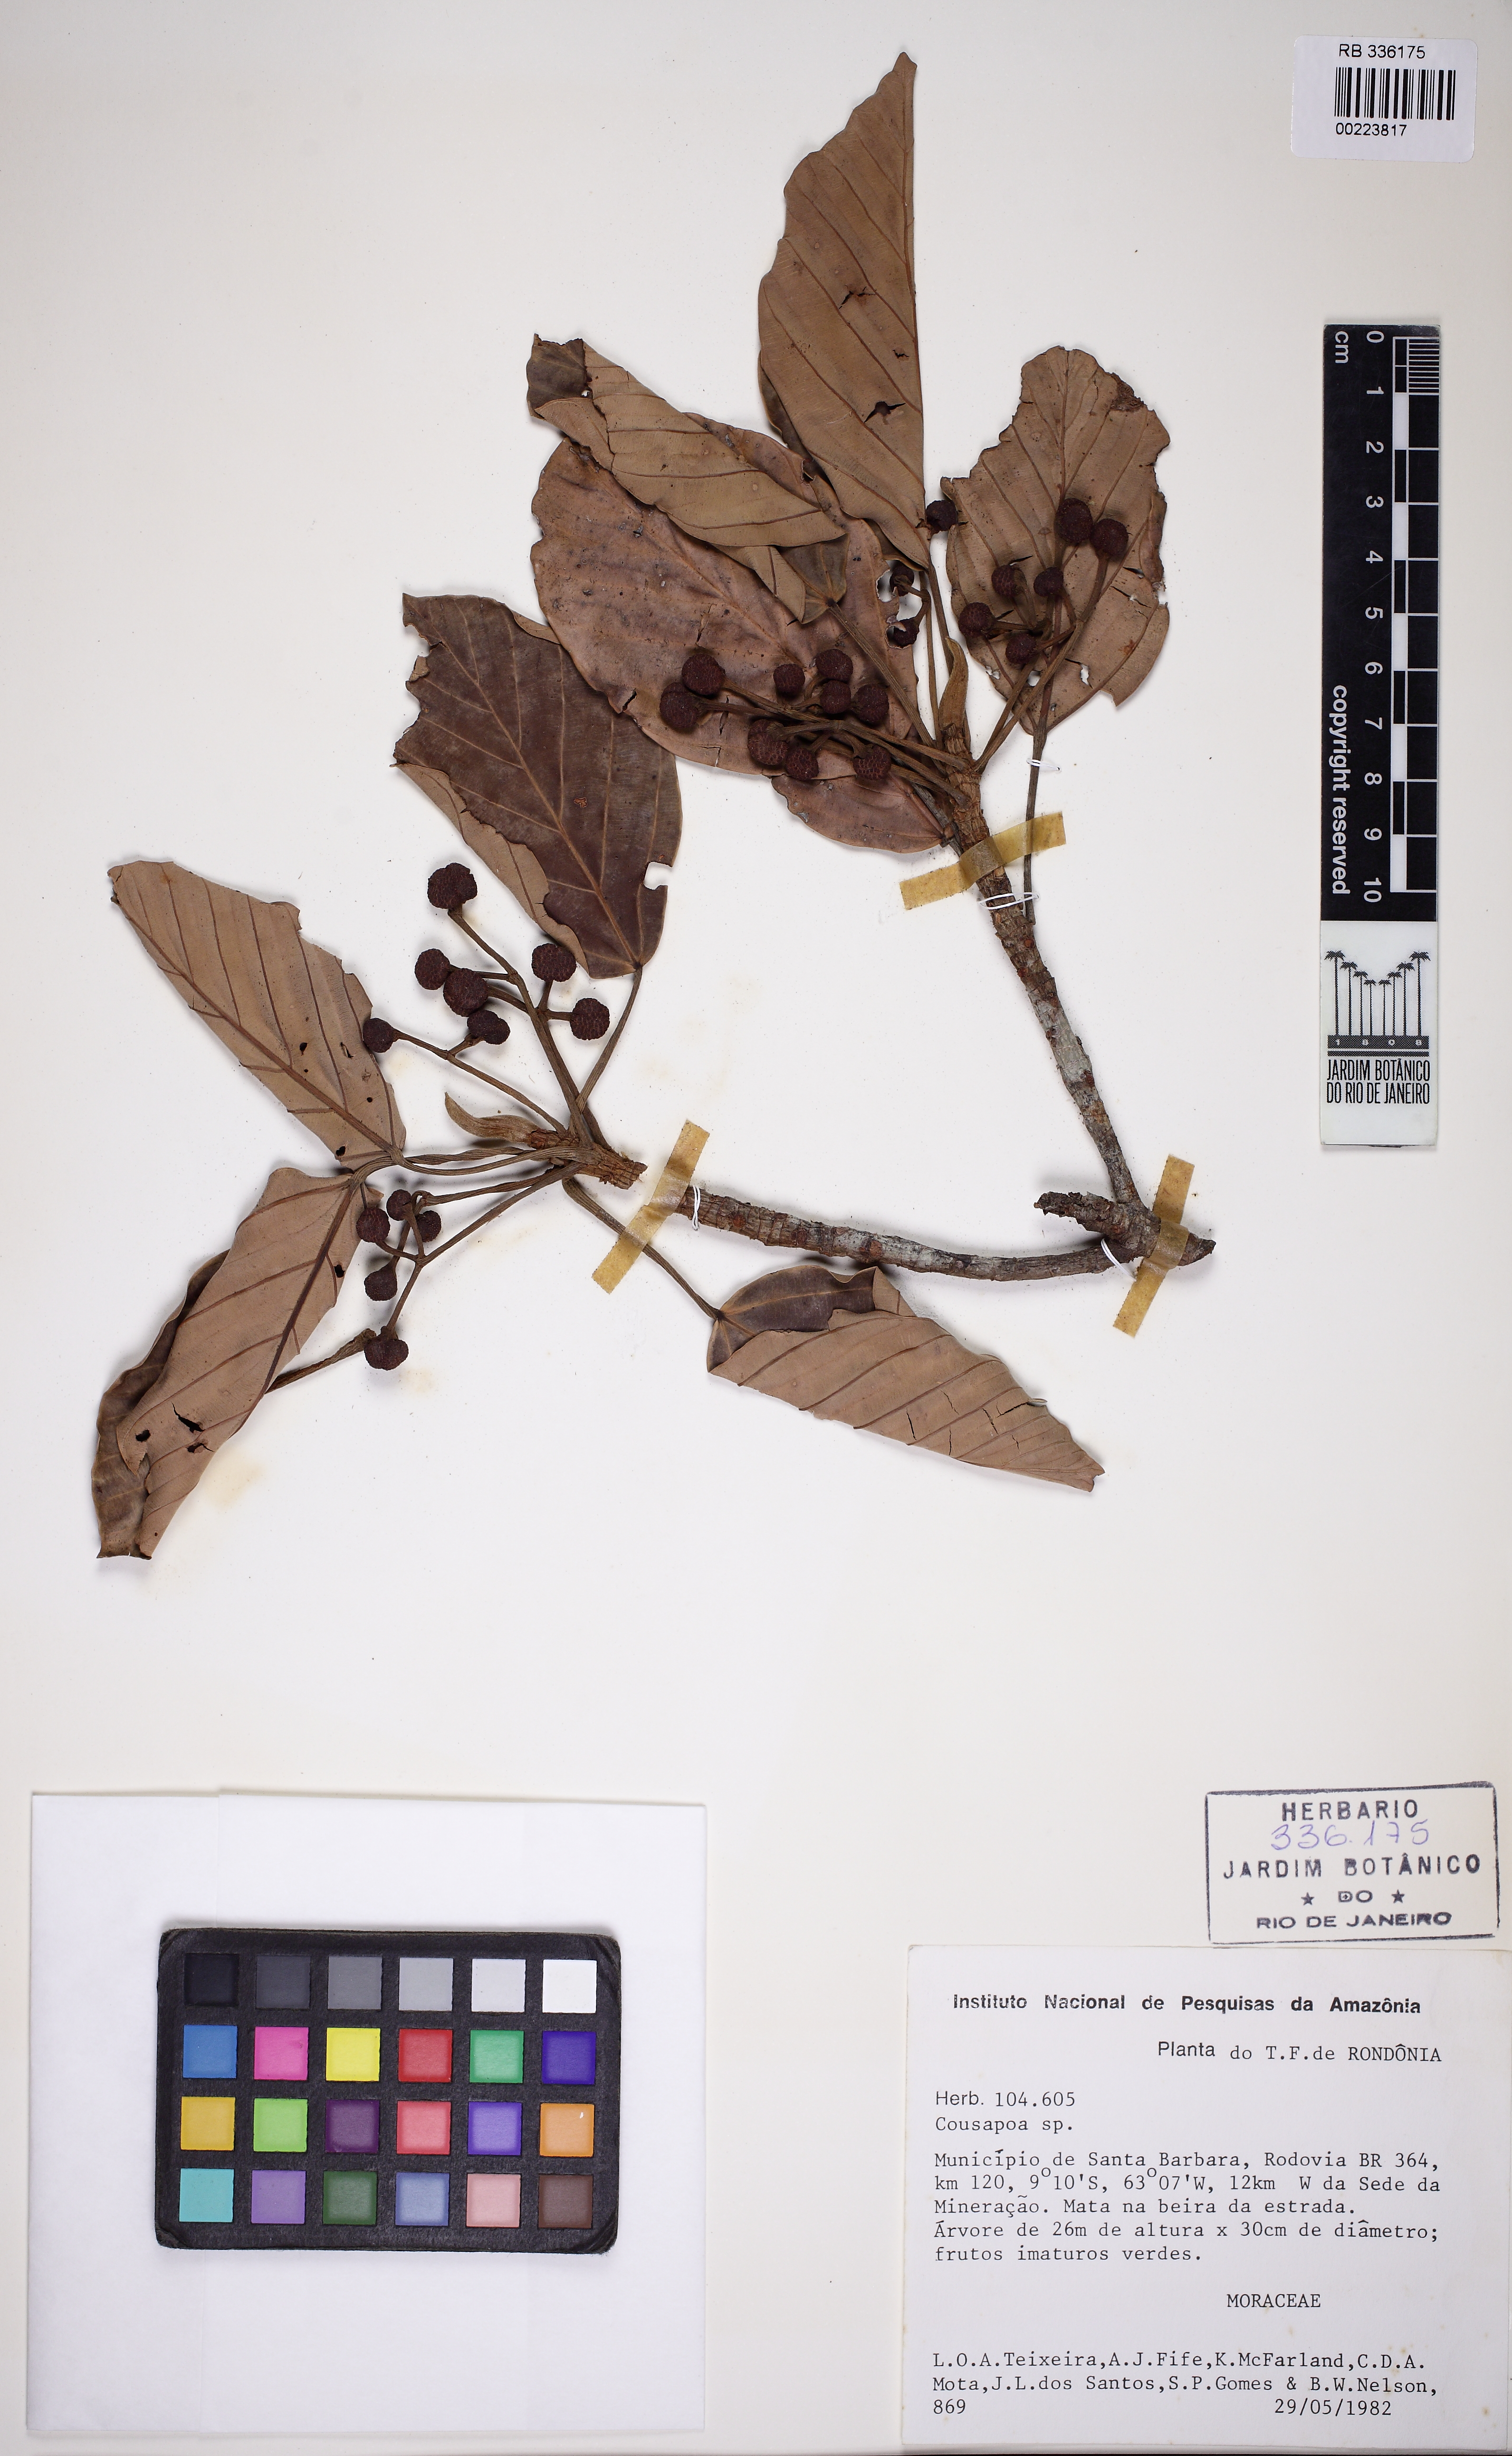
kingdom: Plantae
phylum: Tracheophyta
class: Magnoliopsida
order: Rosales
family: Urticaceae
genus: Coussapoa
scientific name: Coussapoa
